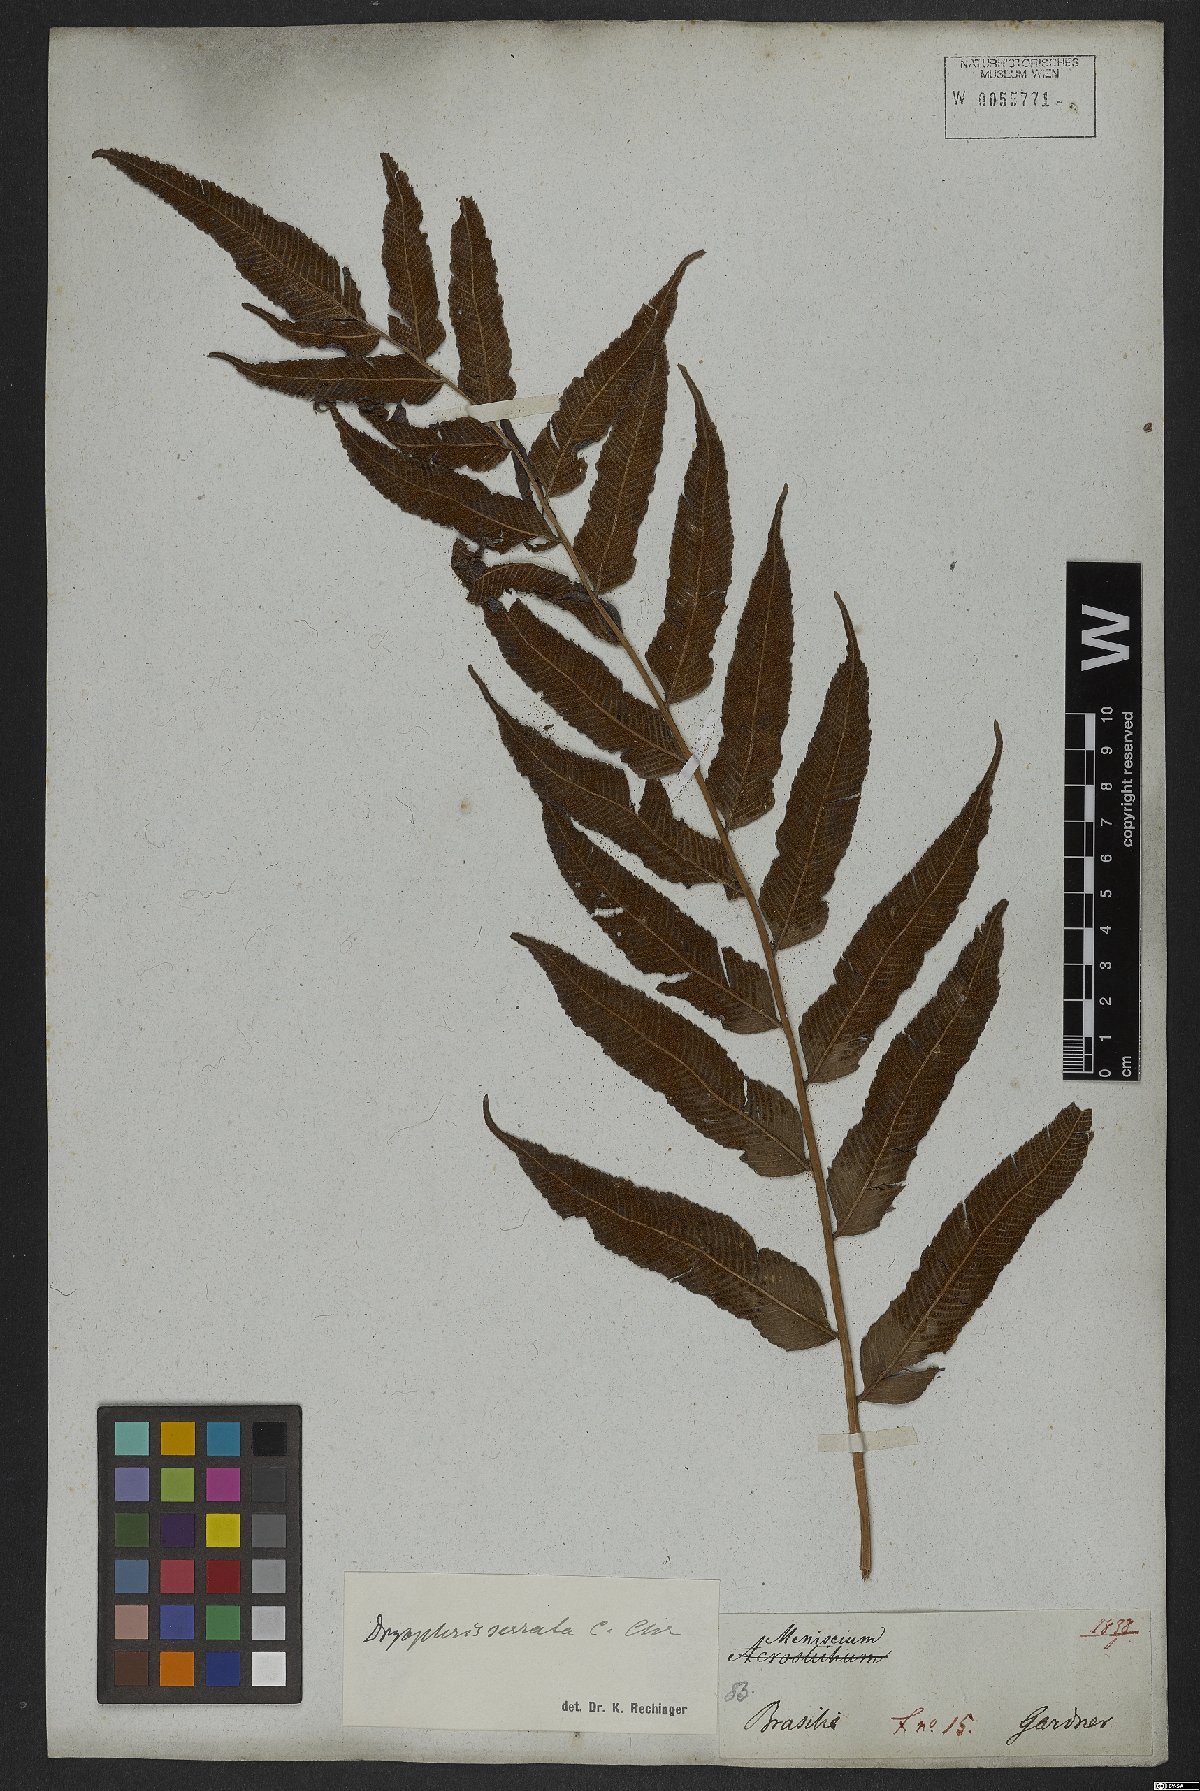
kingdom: Plantae
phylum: Tracheophyta
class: Polypodiopsida
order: Polypodiales
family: Thelypteridaceae
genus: Meniscium
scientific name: Meniscium serratum
